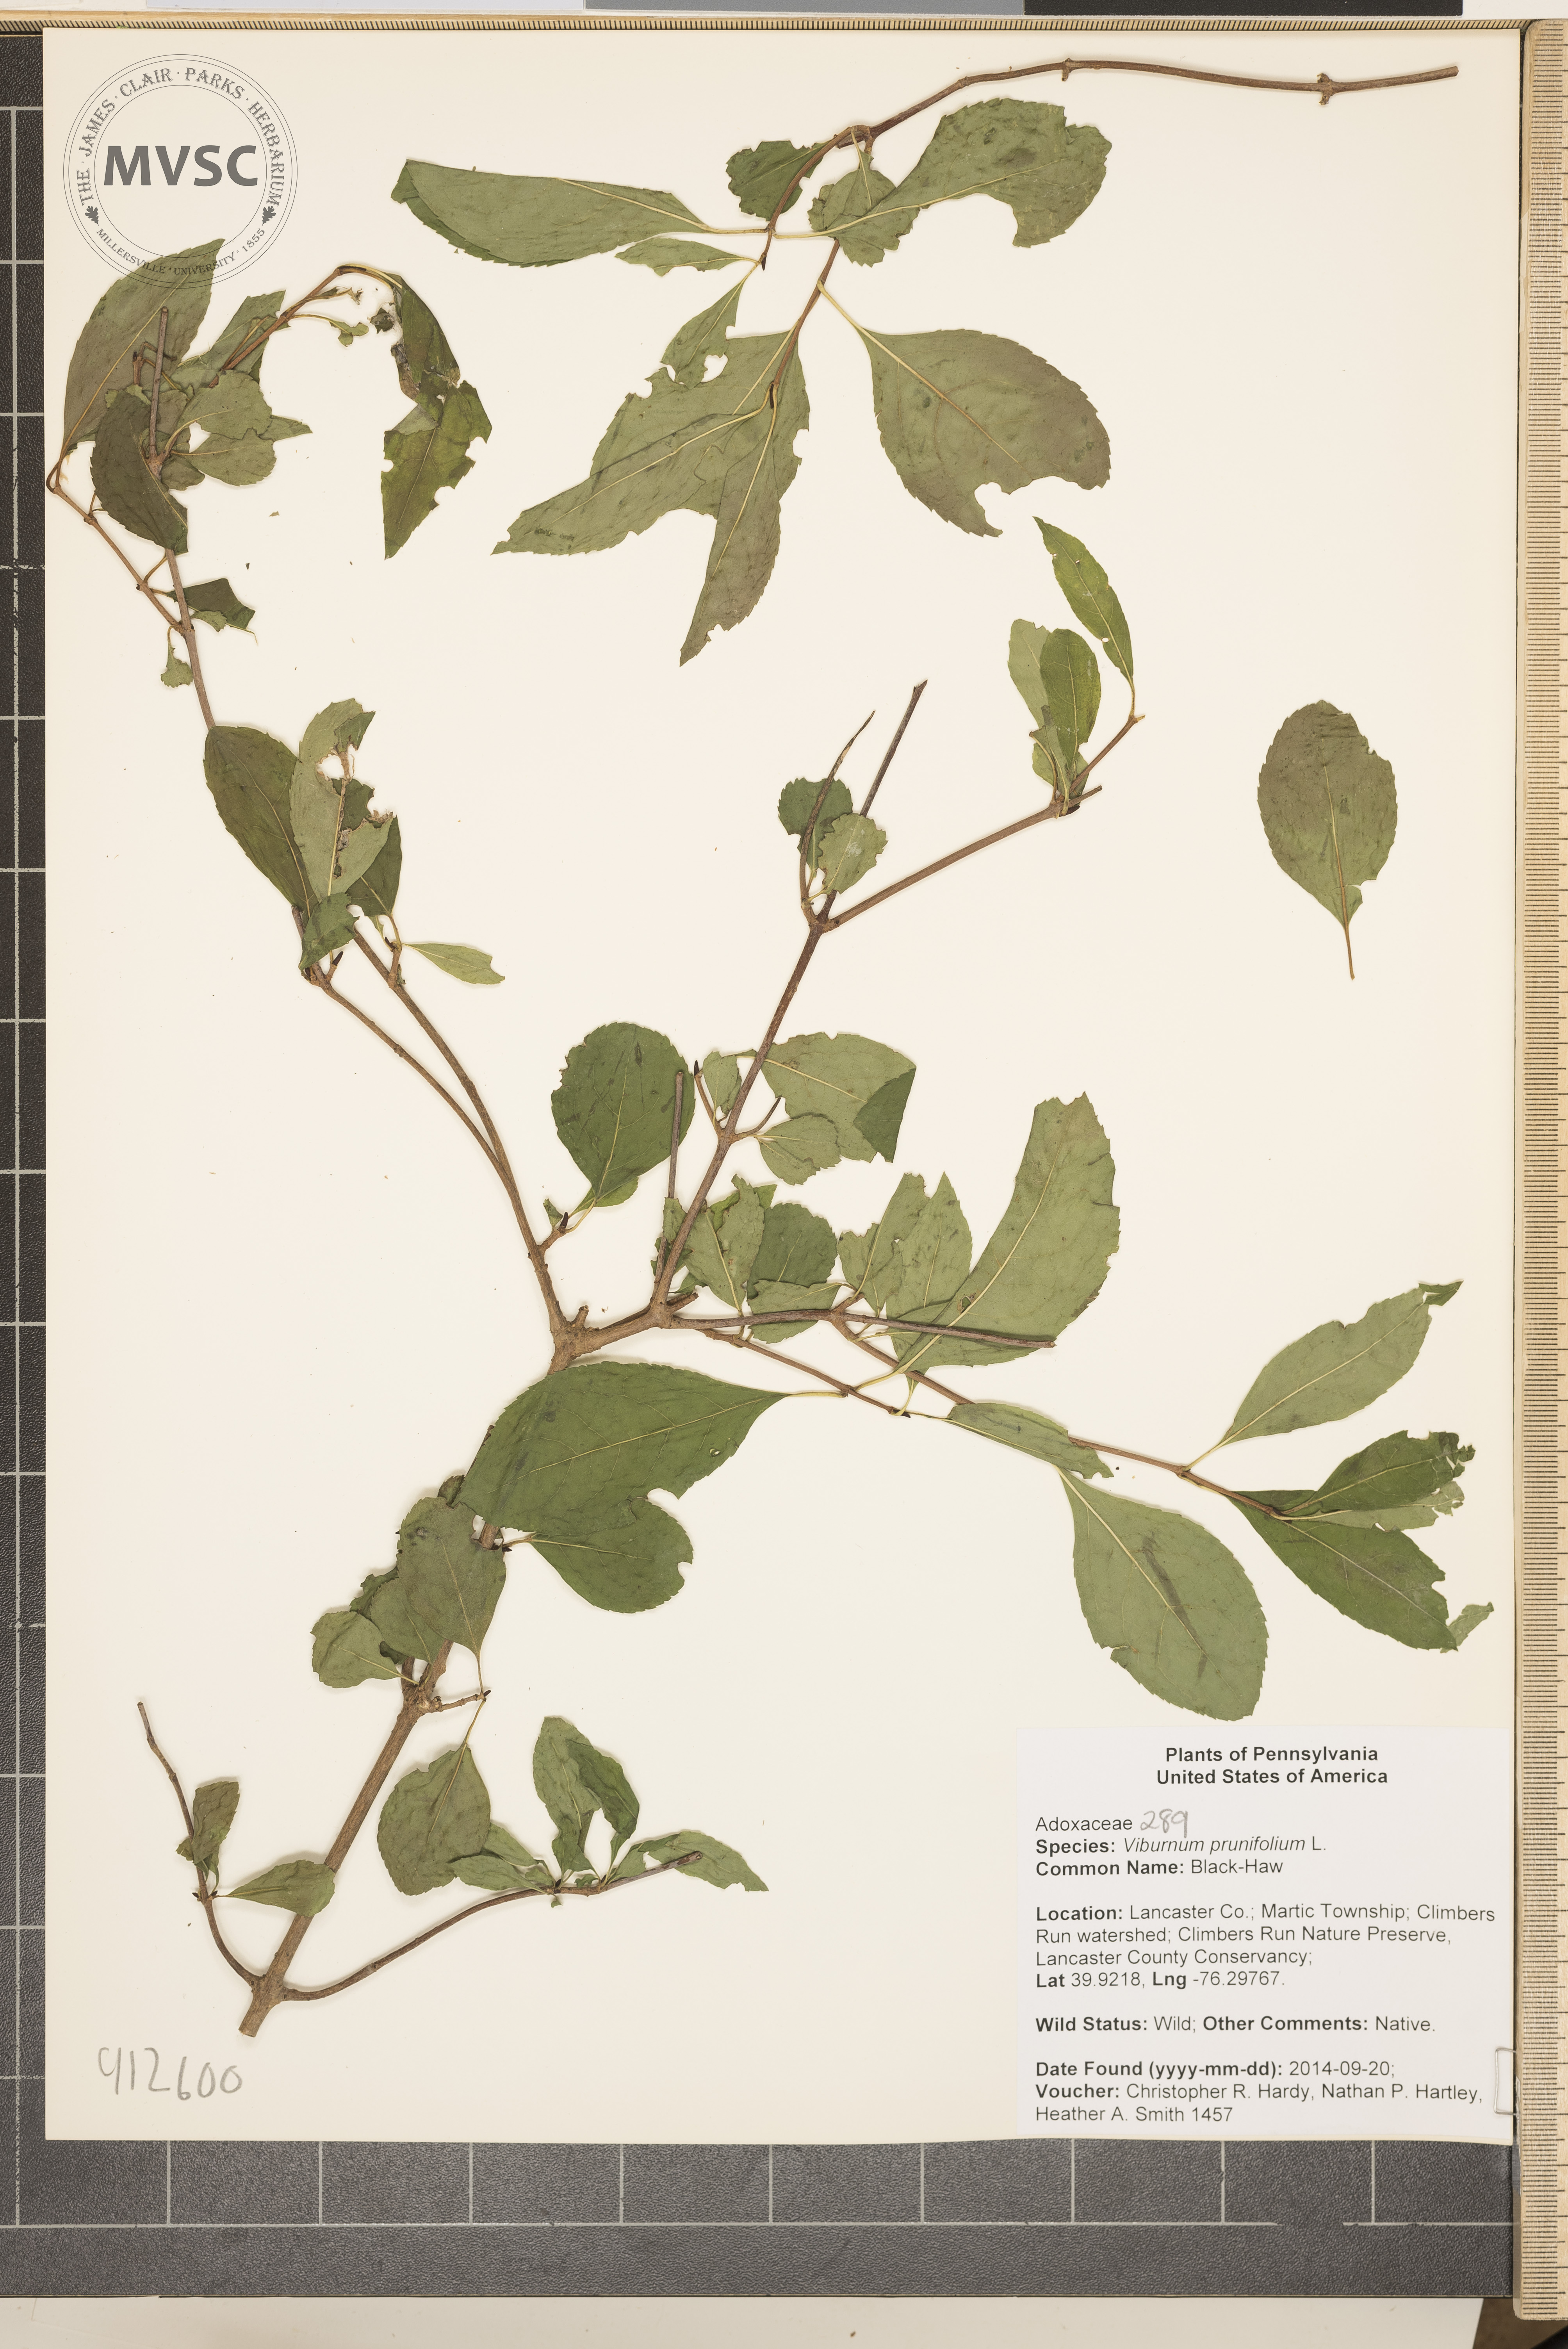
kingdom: Plantae
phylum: Tracheophyta
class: Magnoliopsida
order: Dipsacales
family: Viburnaceae
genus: Viburnum
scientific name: Viburnum prunifolium
